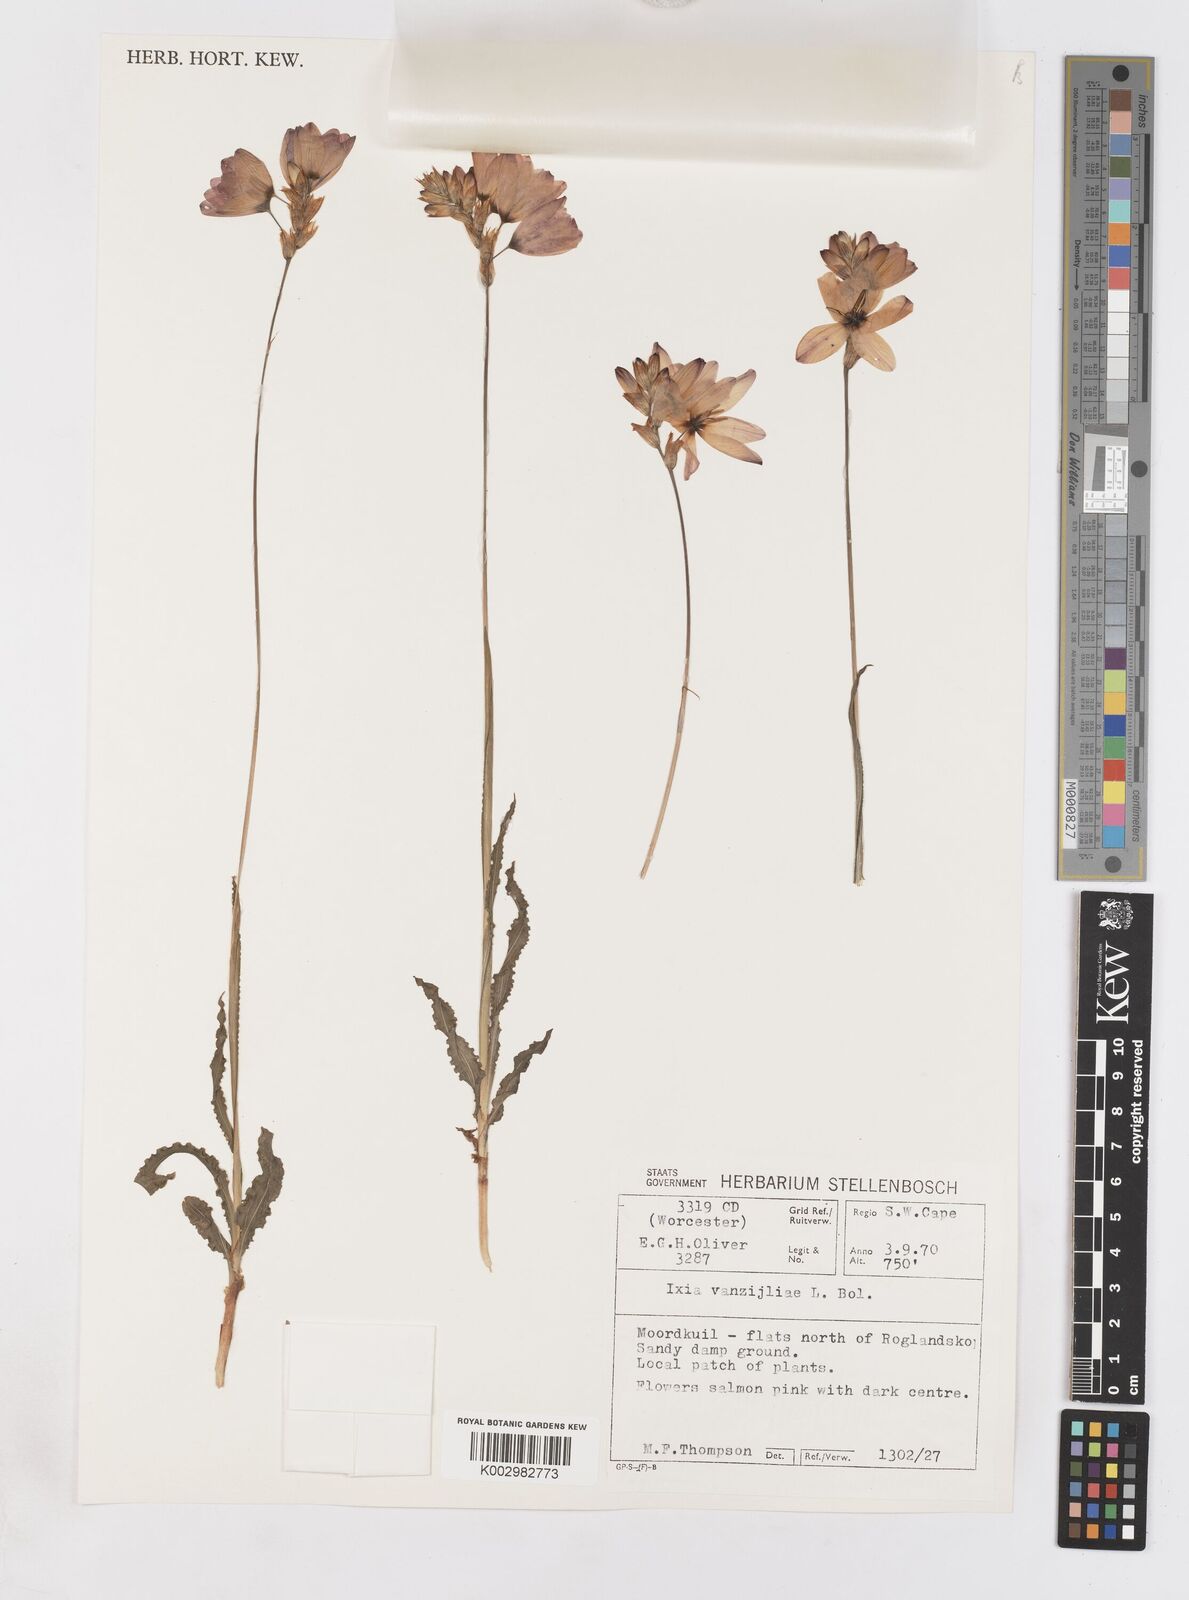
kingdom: Plantae
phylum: Tracheophyta
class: Liliopsida
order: Asparagales
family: Iridaceae
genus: Ixia
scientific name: Ixia vanzijliae
